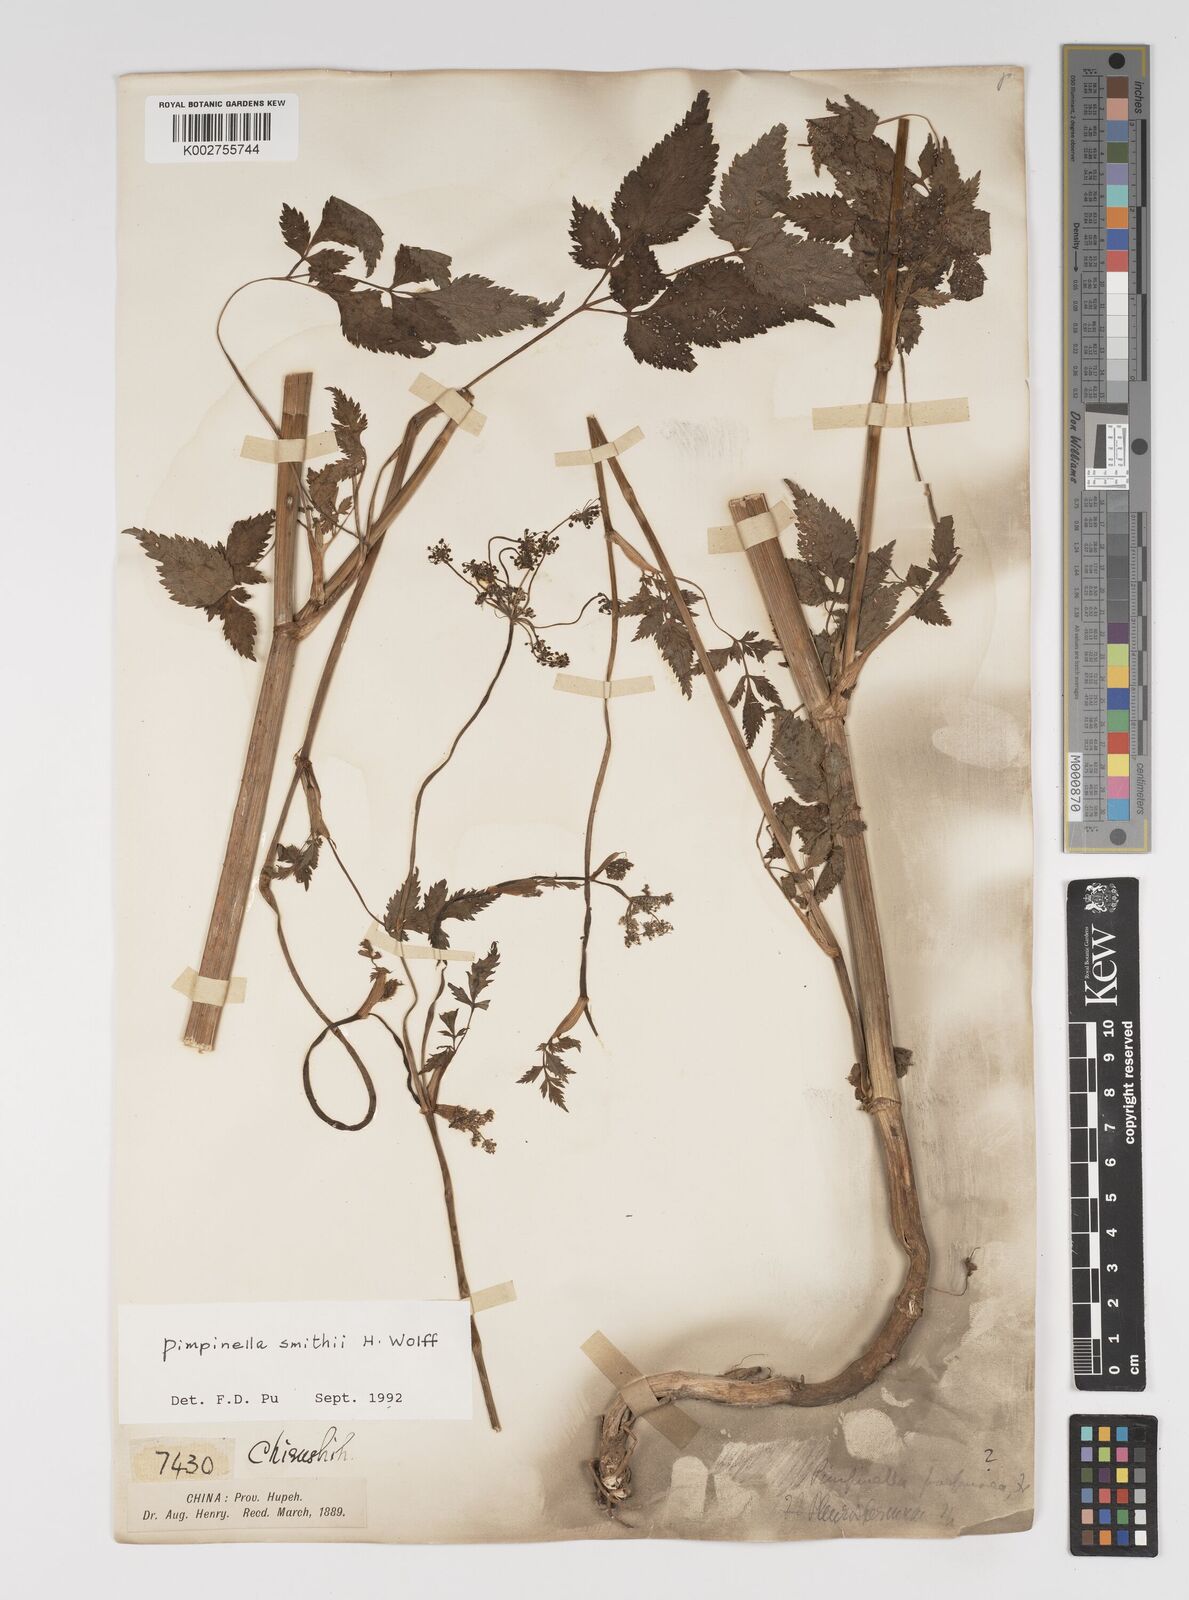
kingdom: Plantae
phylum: Tracheophyta
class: Magnoliopsida
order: Apiales
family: Apiaceae
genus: Pimpinella
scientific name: Pimpinella heliosciadea
